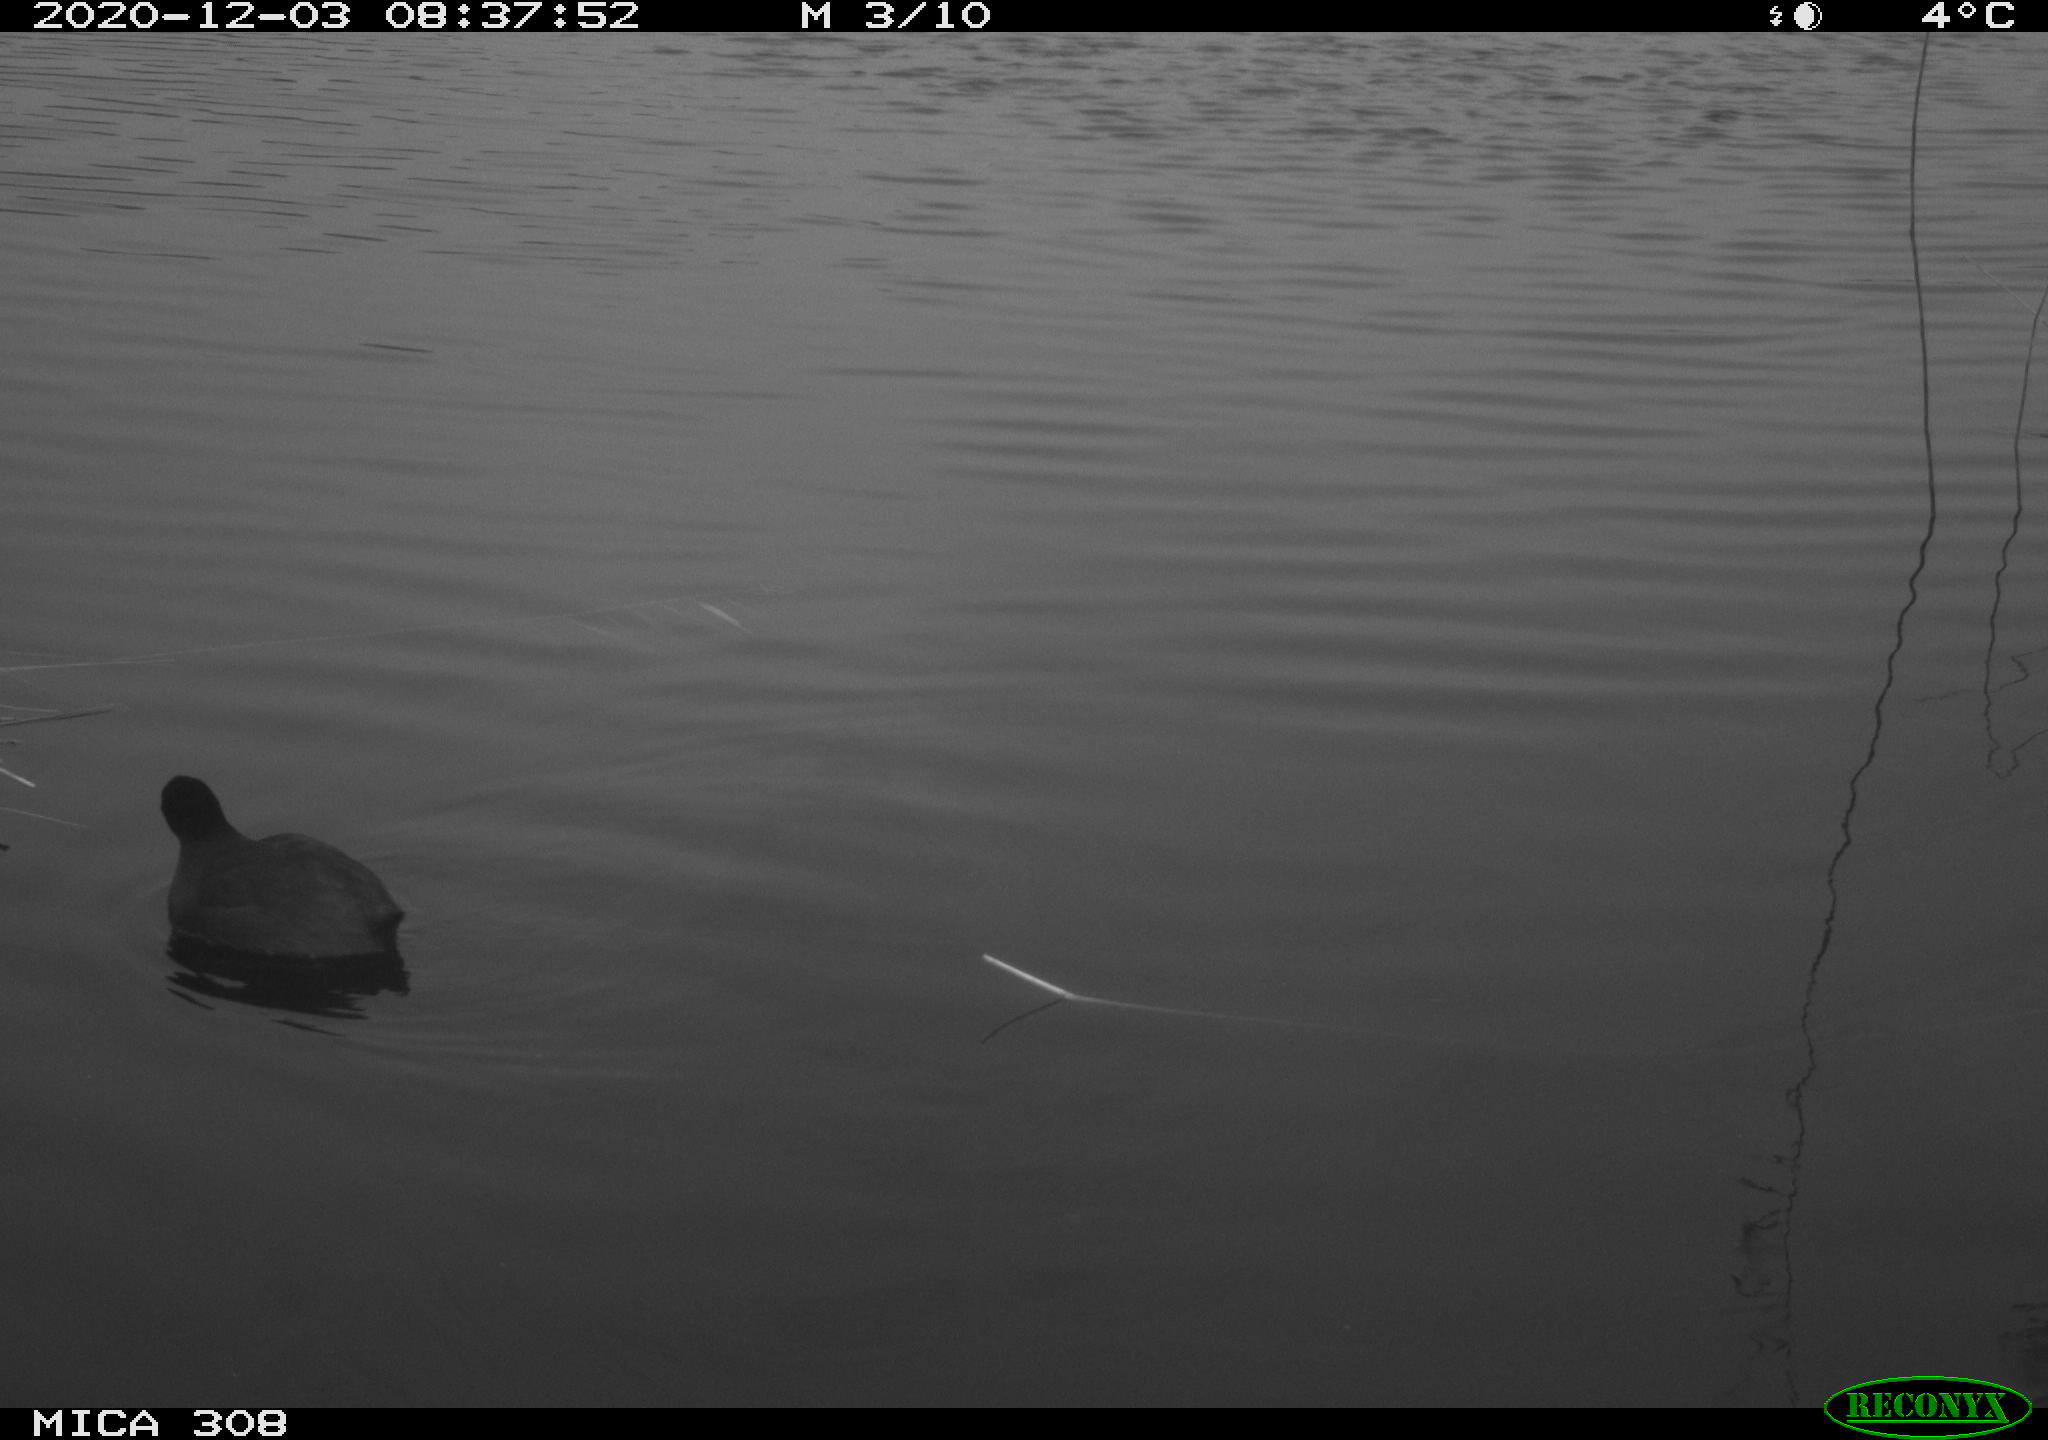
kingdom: Animalia
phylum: Chordata
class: Aves
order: Gruiformes
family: Rallidae
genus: Gallinula
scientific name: Gallinula chloropus
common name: Common moorhen
